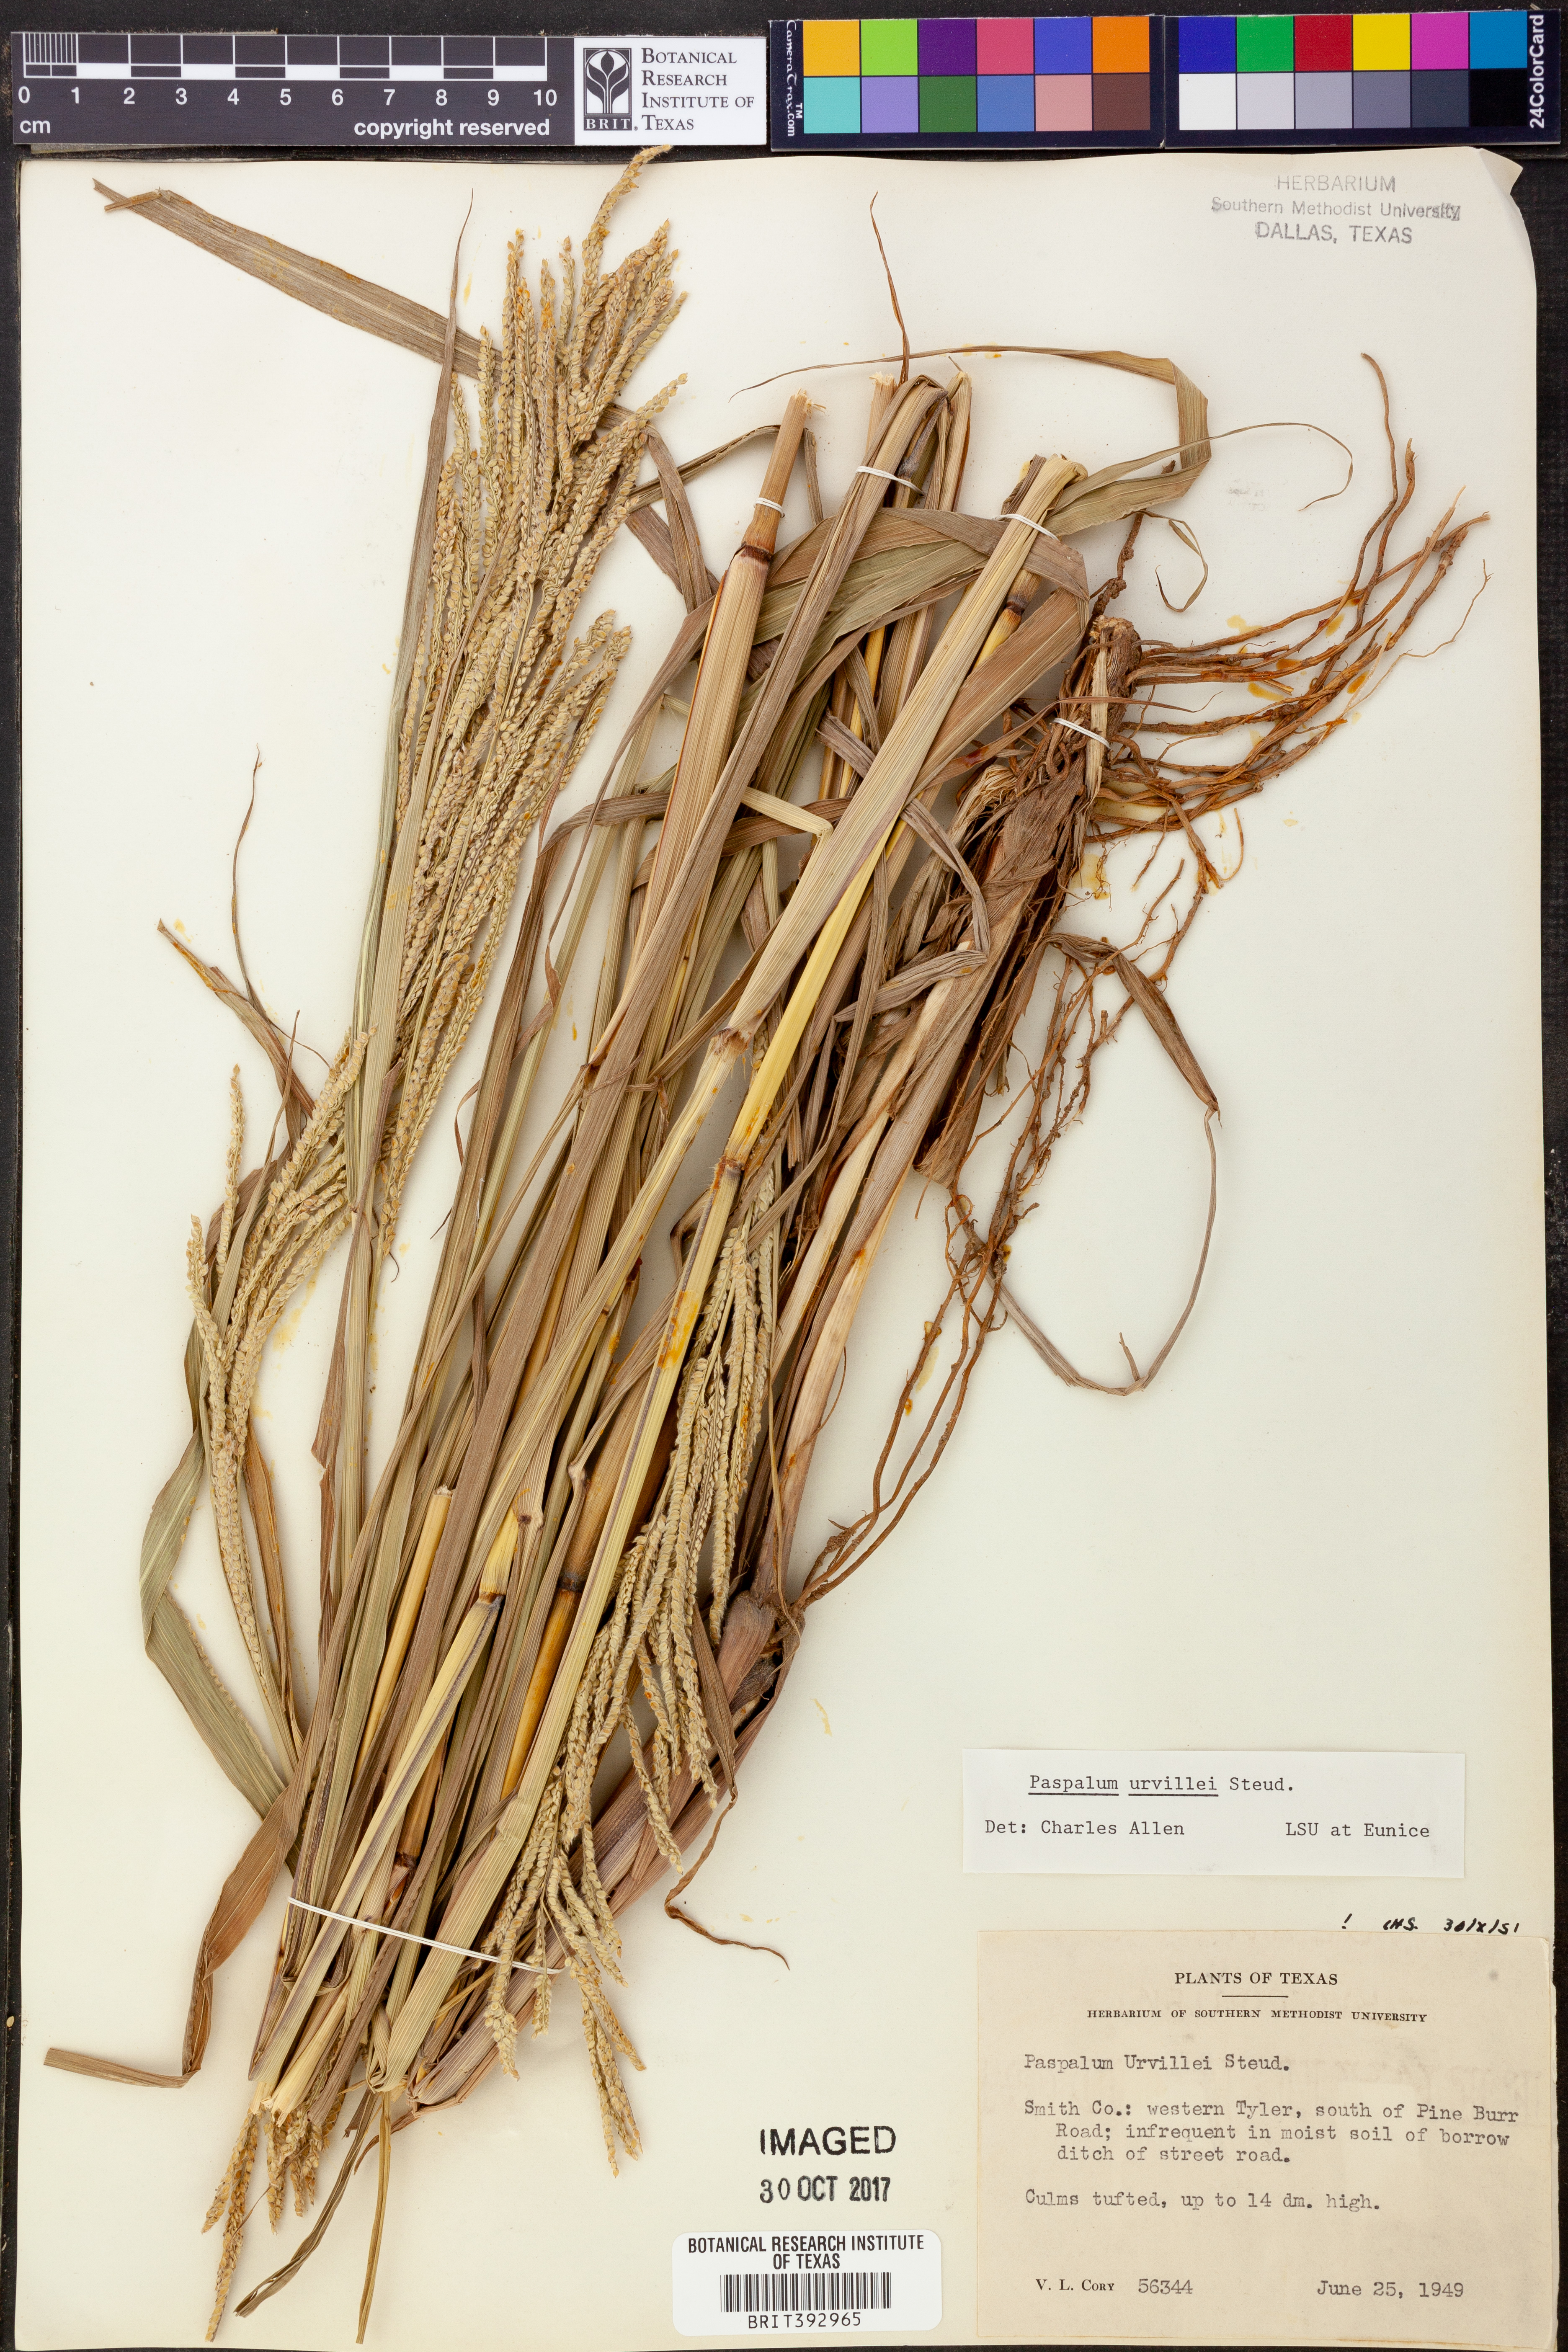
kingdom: Plantae
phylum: Tracheophyta
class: Liliopsida
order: Poales
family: Poaceae
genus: Paspalum
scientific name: Paspalum urvillei
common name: Vasey's grass
